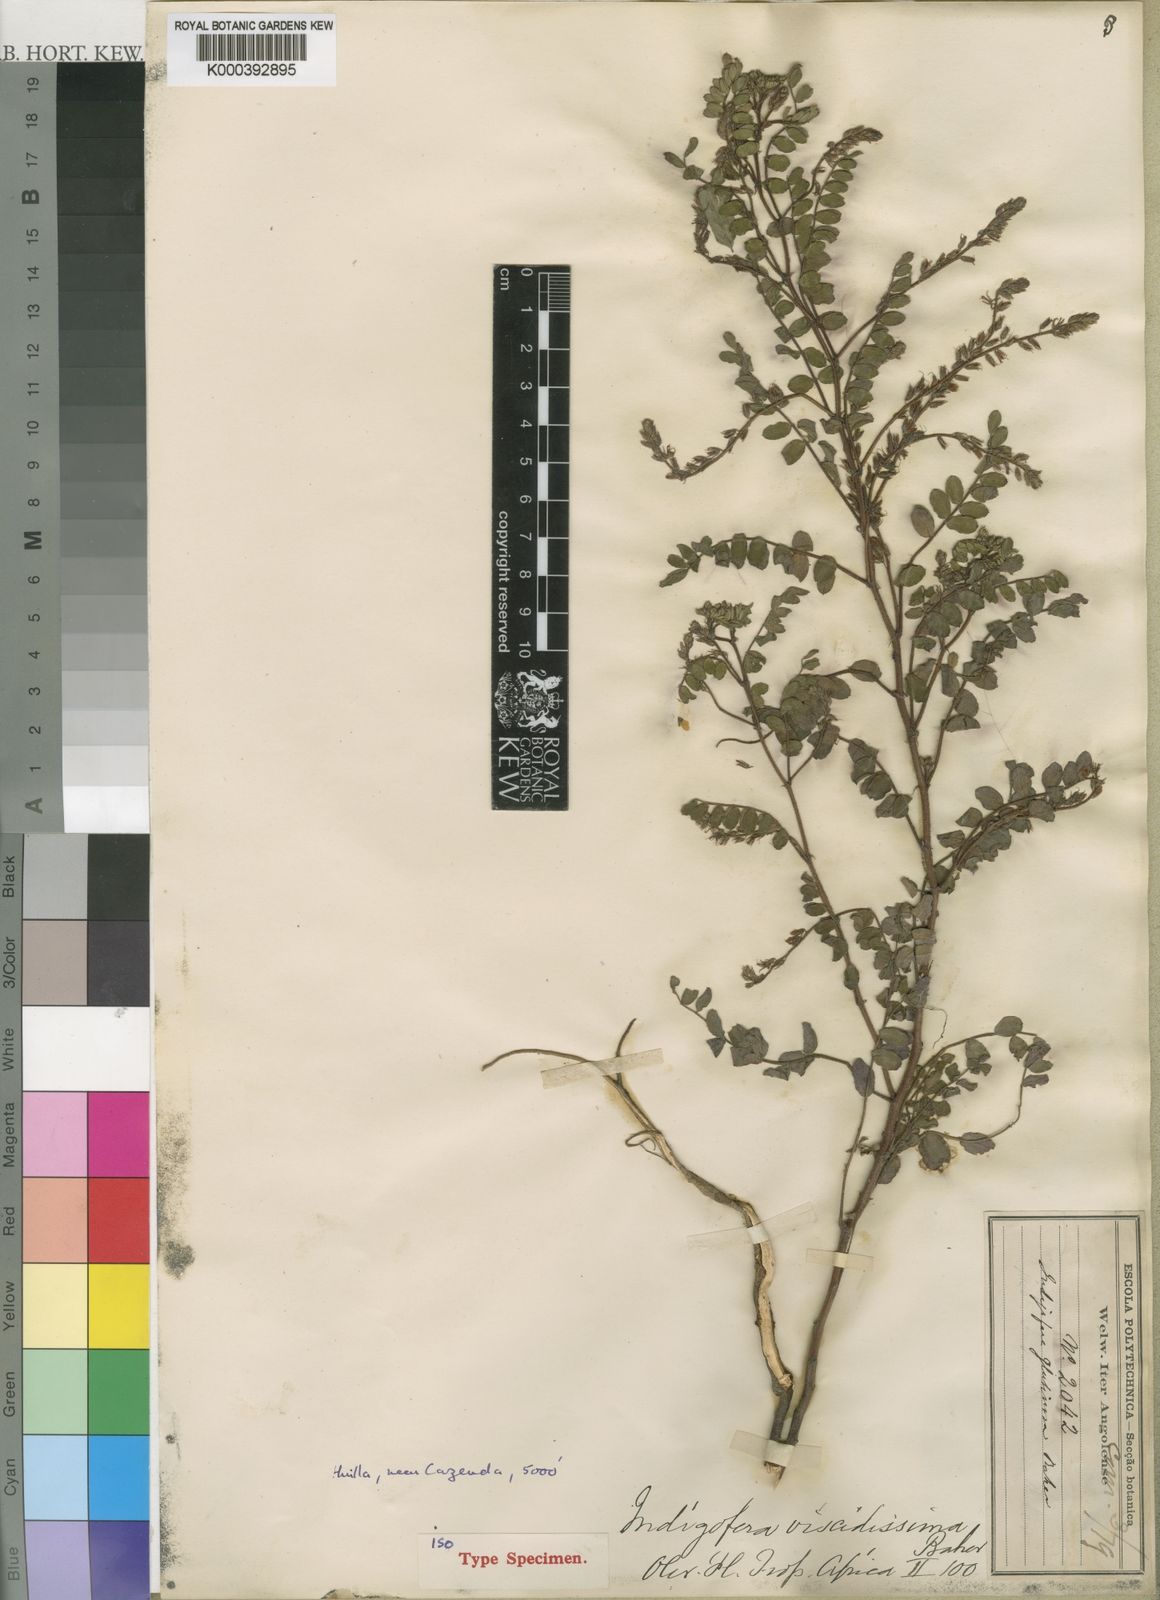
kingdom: Plantae
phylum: Tracheophyta
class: Magnoliopsida
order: Fabales
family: Fabaceae
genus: Indigofera
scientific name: Indigofera viscidissima
